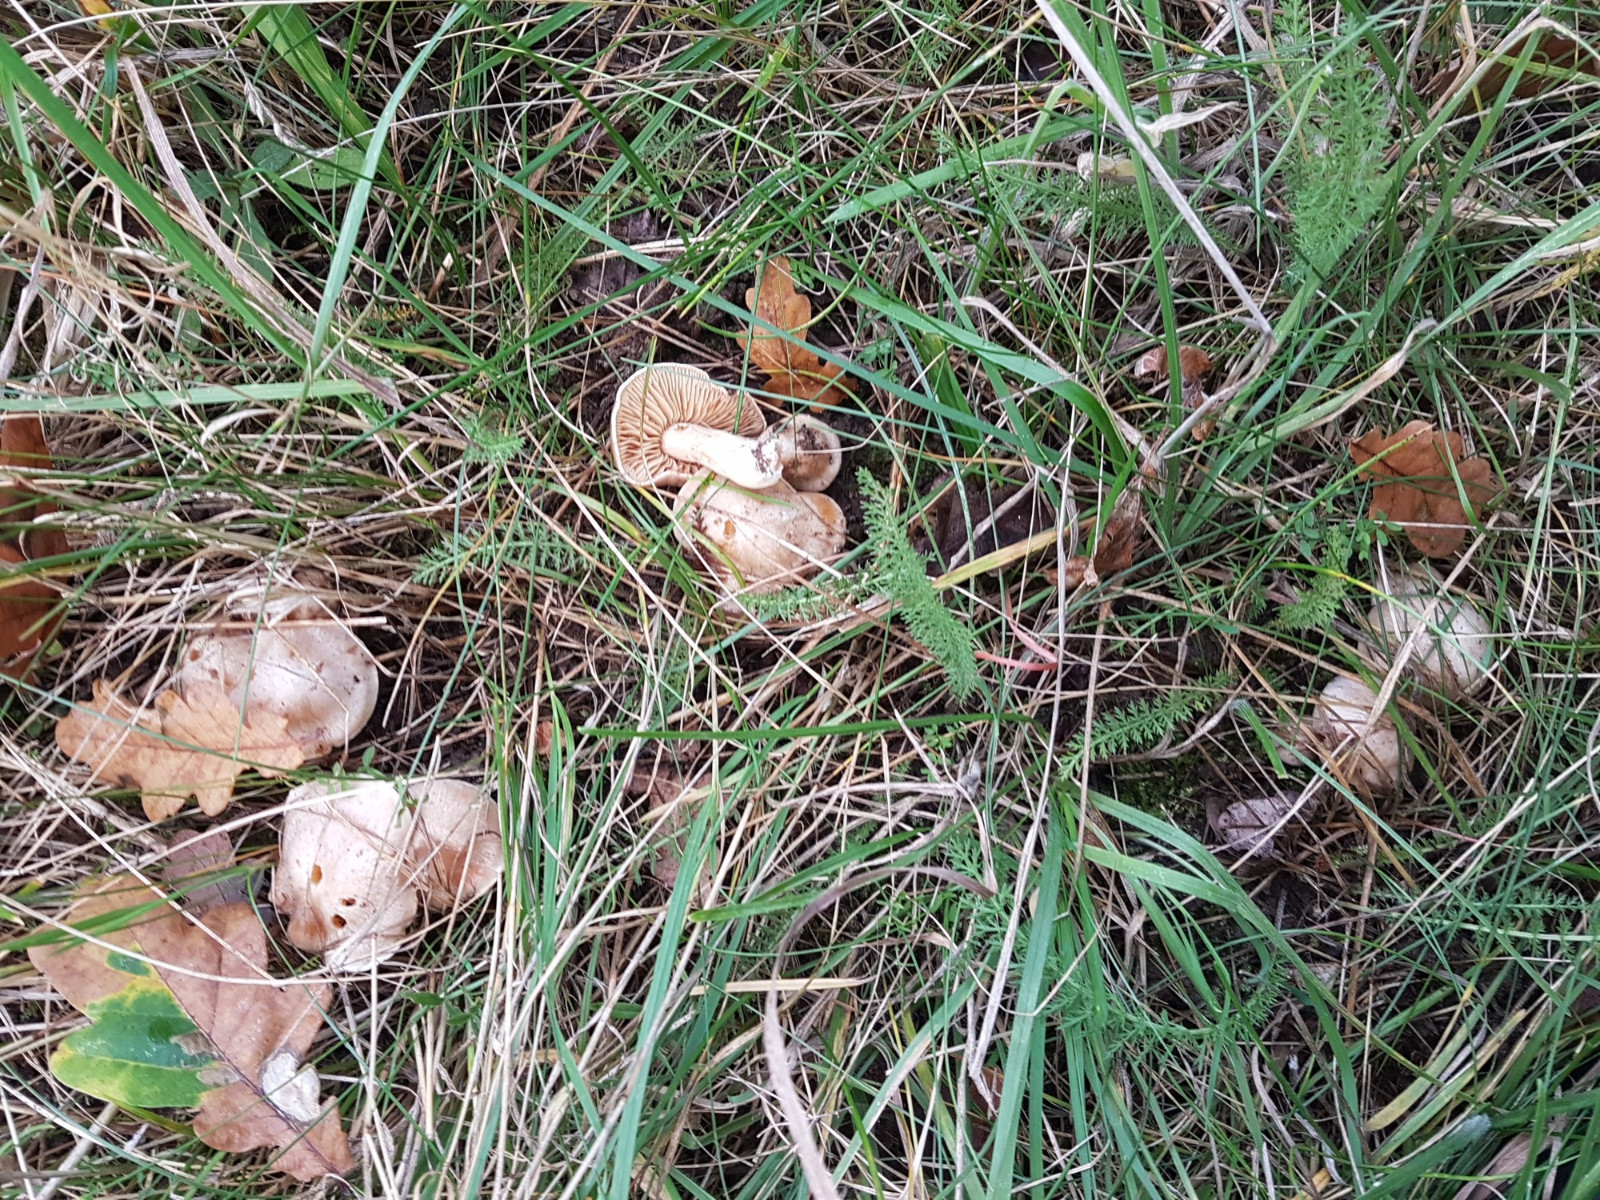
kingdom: Fungi
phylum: Basidiomycota
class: Agaricomycetes
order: Agaricales
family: Cortinariaceae
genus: Cortinarius
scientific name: Cortinarius
